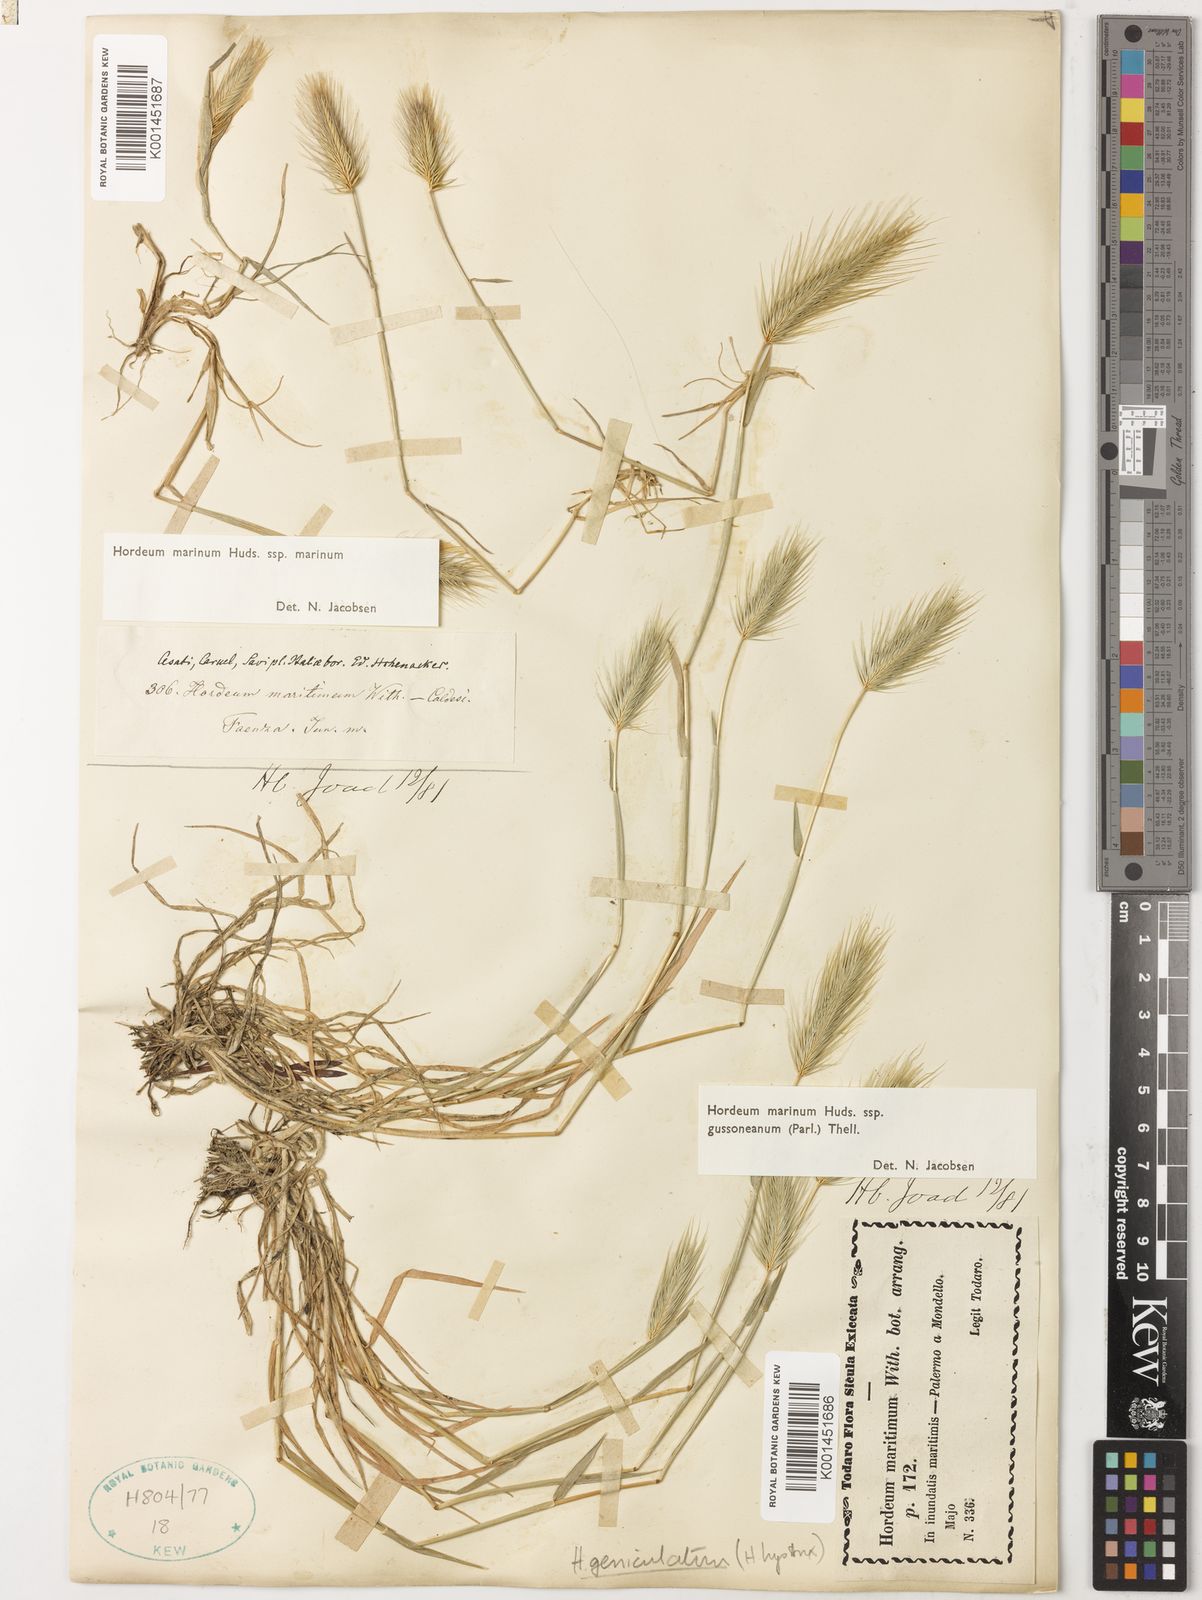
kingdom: Plantae
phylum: Tracheophyta
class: Liliopsida
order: Poales
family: Poaceae
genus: Hordeum
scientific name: Hordeum marinum
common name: Sea barley
